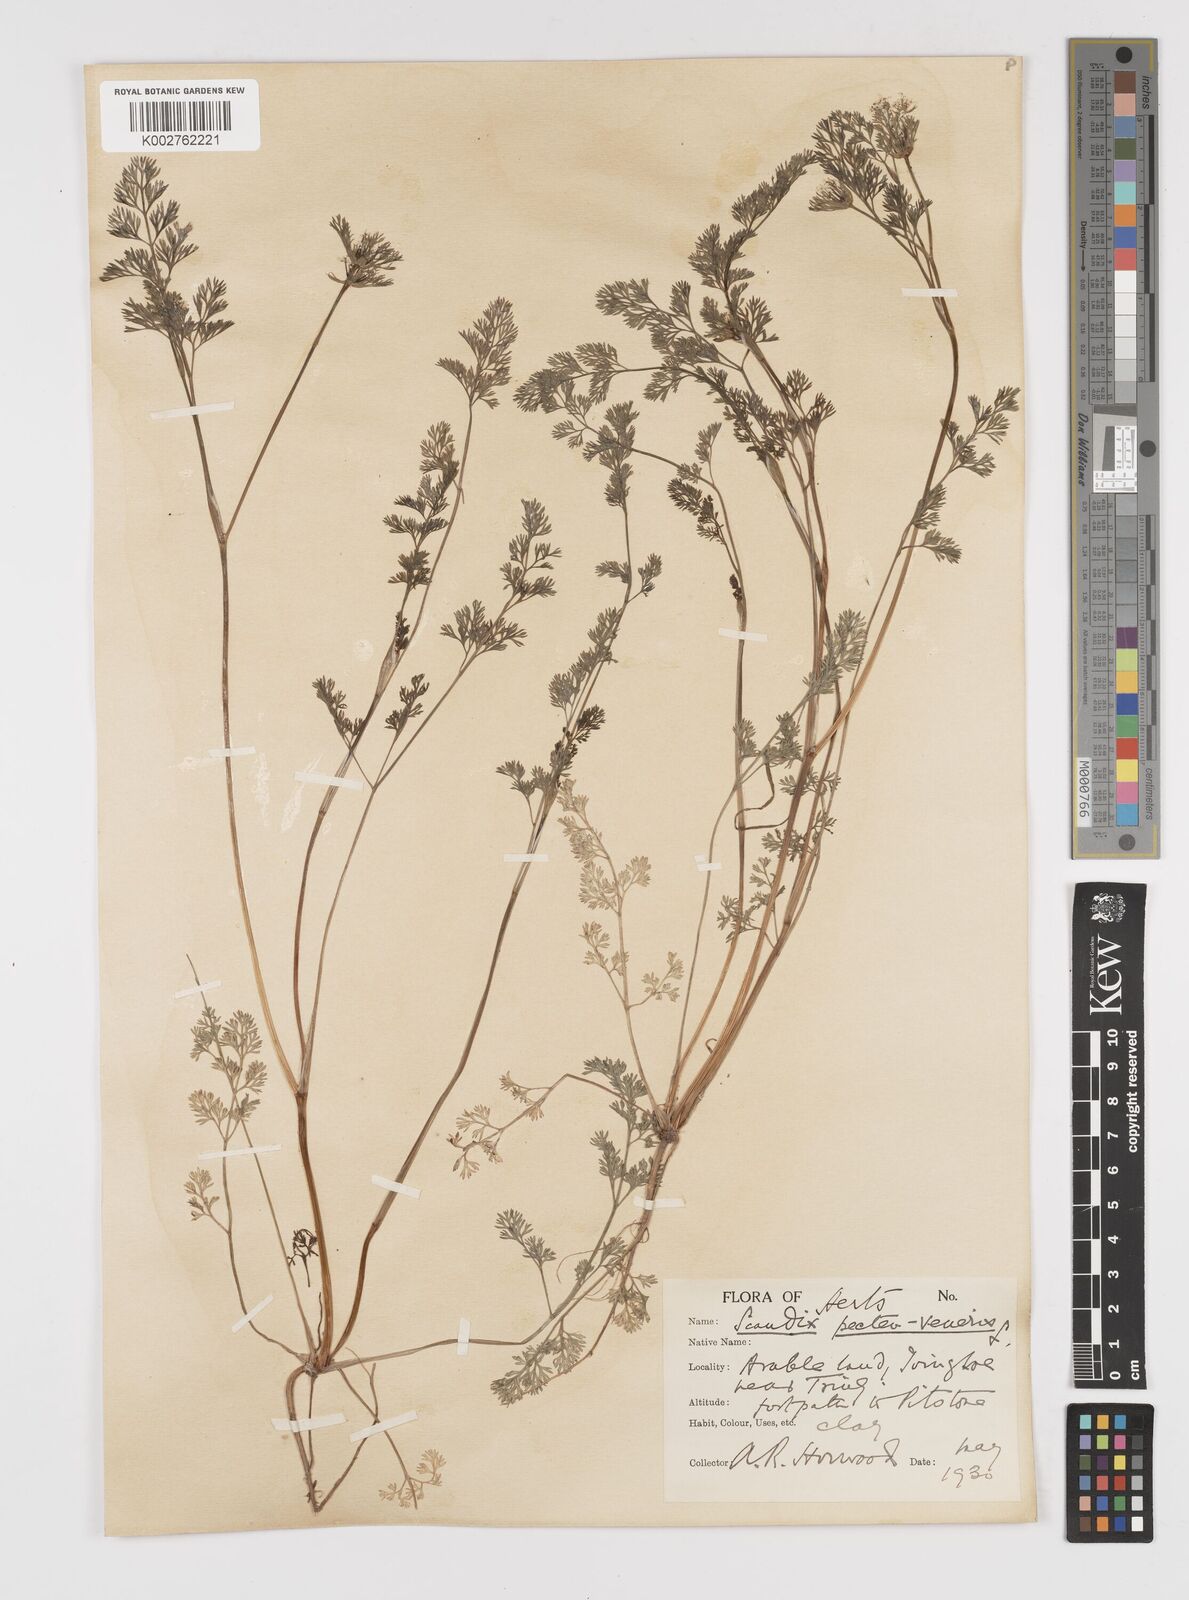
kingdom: Plantae
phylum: Tracheophyta
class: Magnoliopsida
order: Apiales
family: Apiaceae
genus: Scandix
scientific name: Scandix pecten-veneris
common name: Shepherd's-needle
